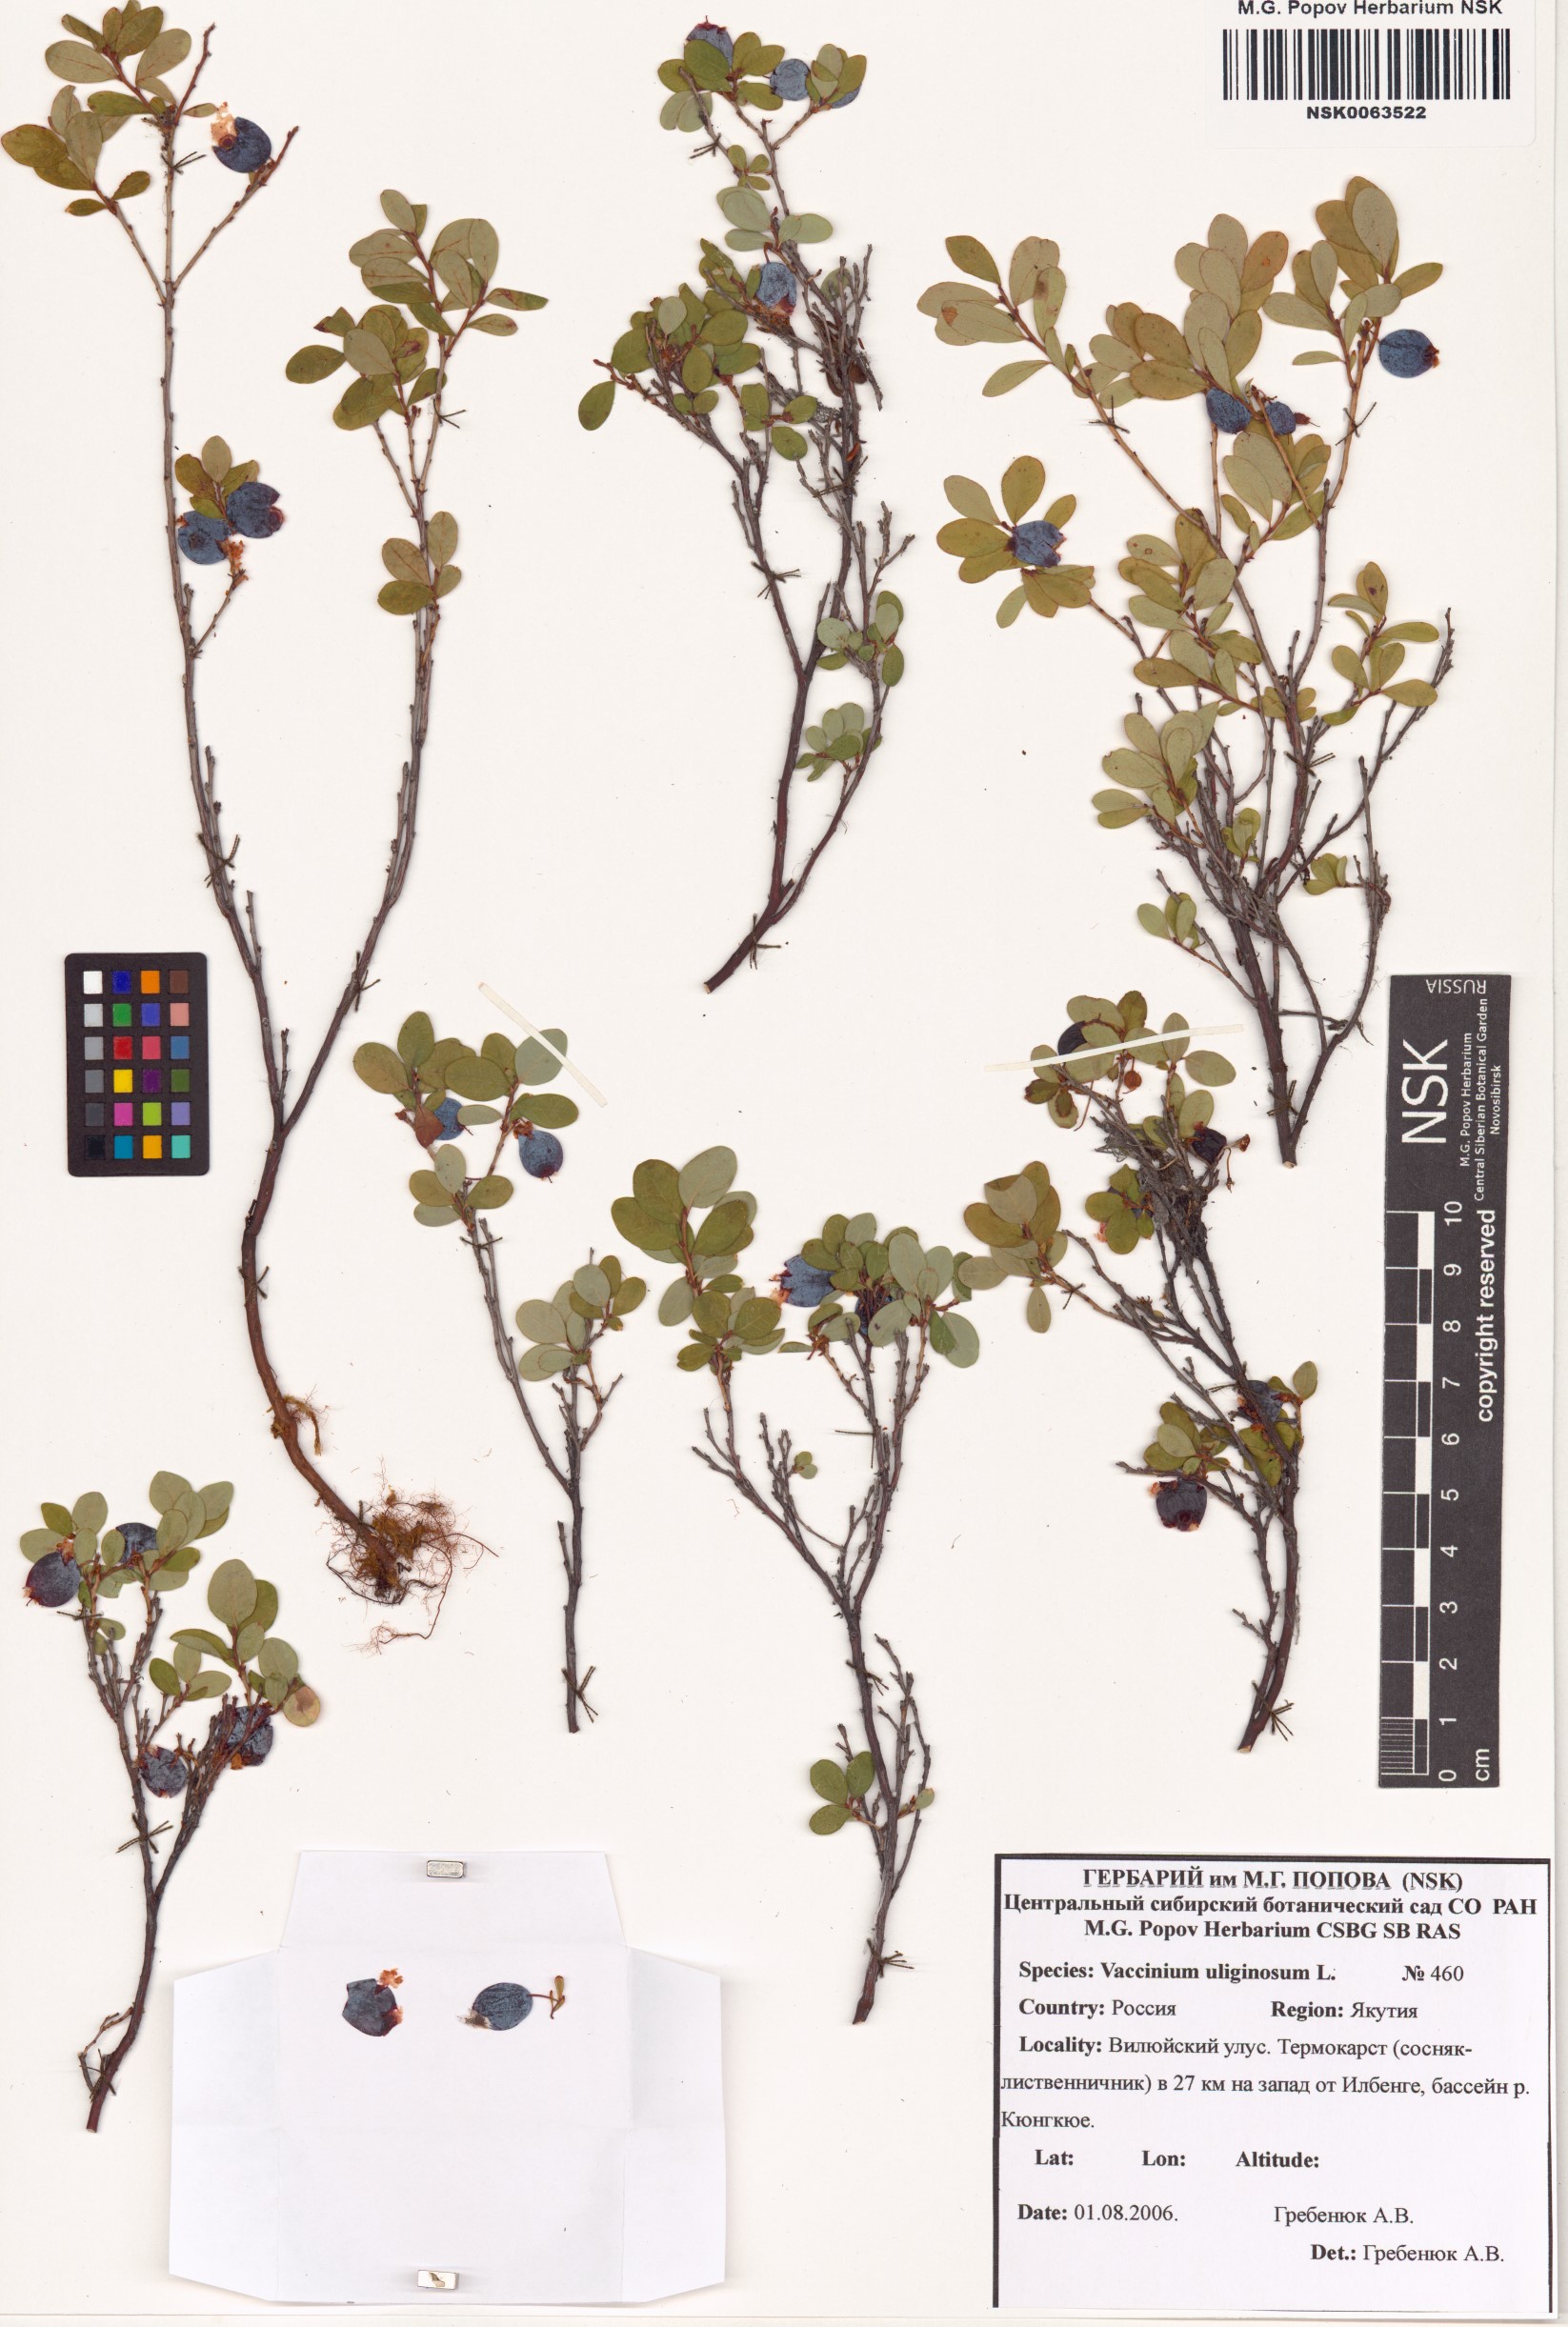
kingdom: Plantae
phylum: Tracheophyta
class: Magnoliopsida
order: Ericales
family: Ericaceae
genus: Vaccinium
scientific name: Vaccinium uliginosum
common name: Bog bilberry
